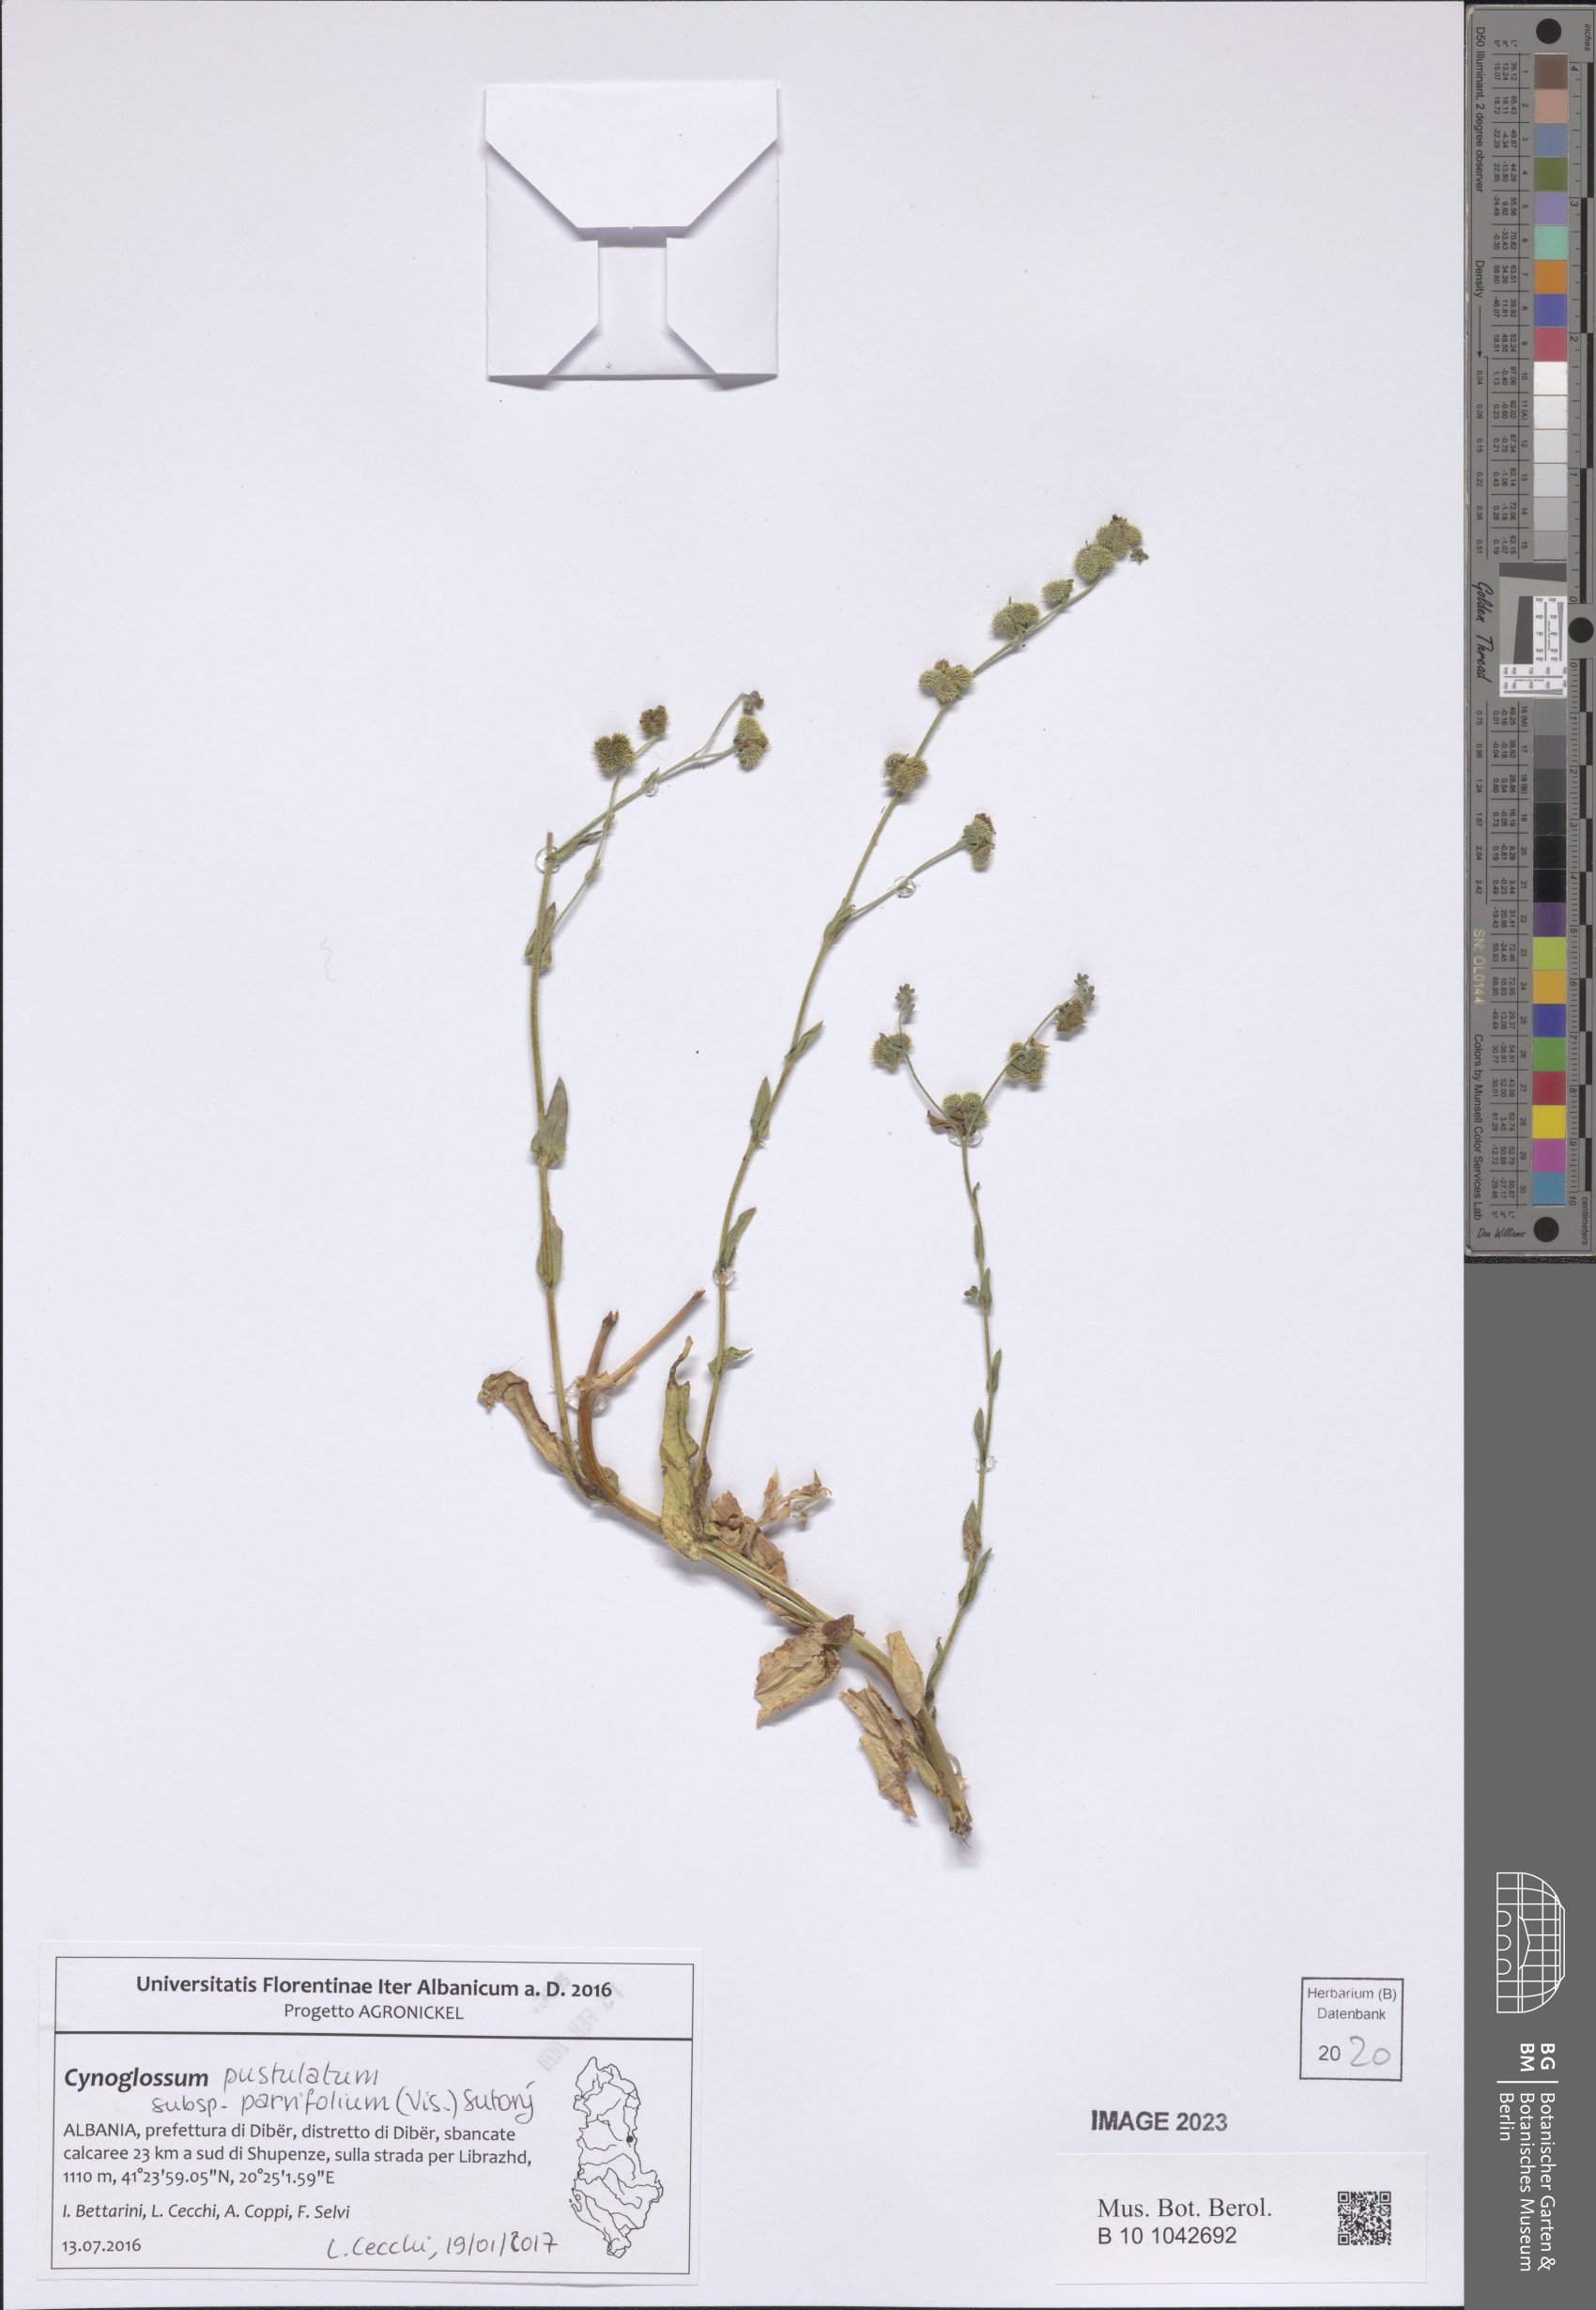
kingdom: Plantae
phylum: Tracheophyta
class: Magnoliopsida
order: Boraginales
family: Boraginaceae
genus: Cynoglossum
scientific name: Cynoglossum pustulatum
